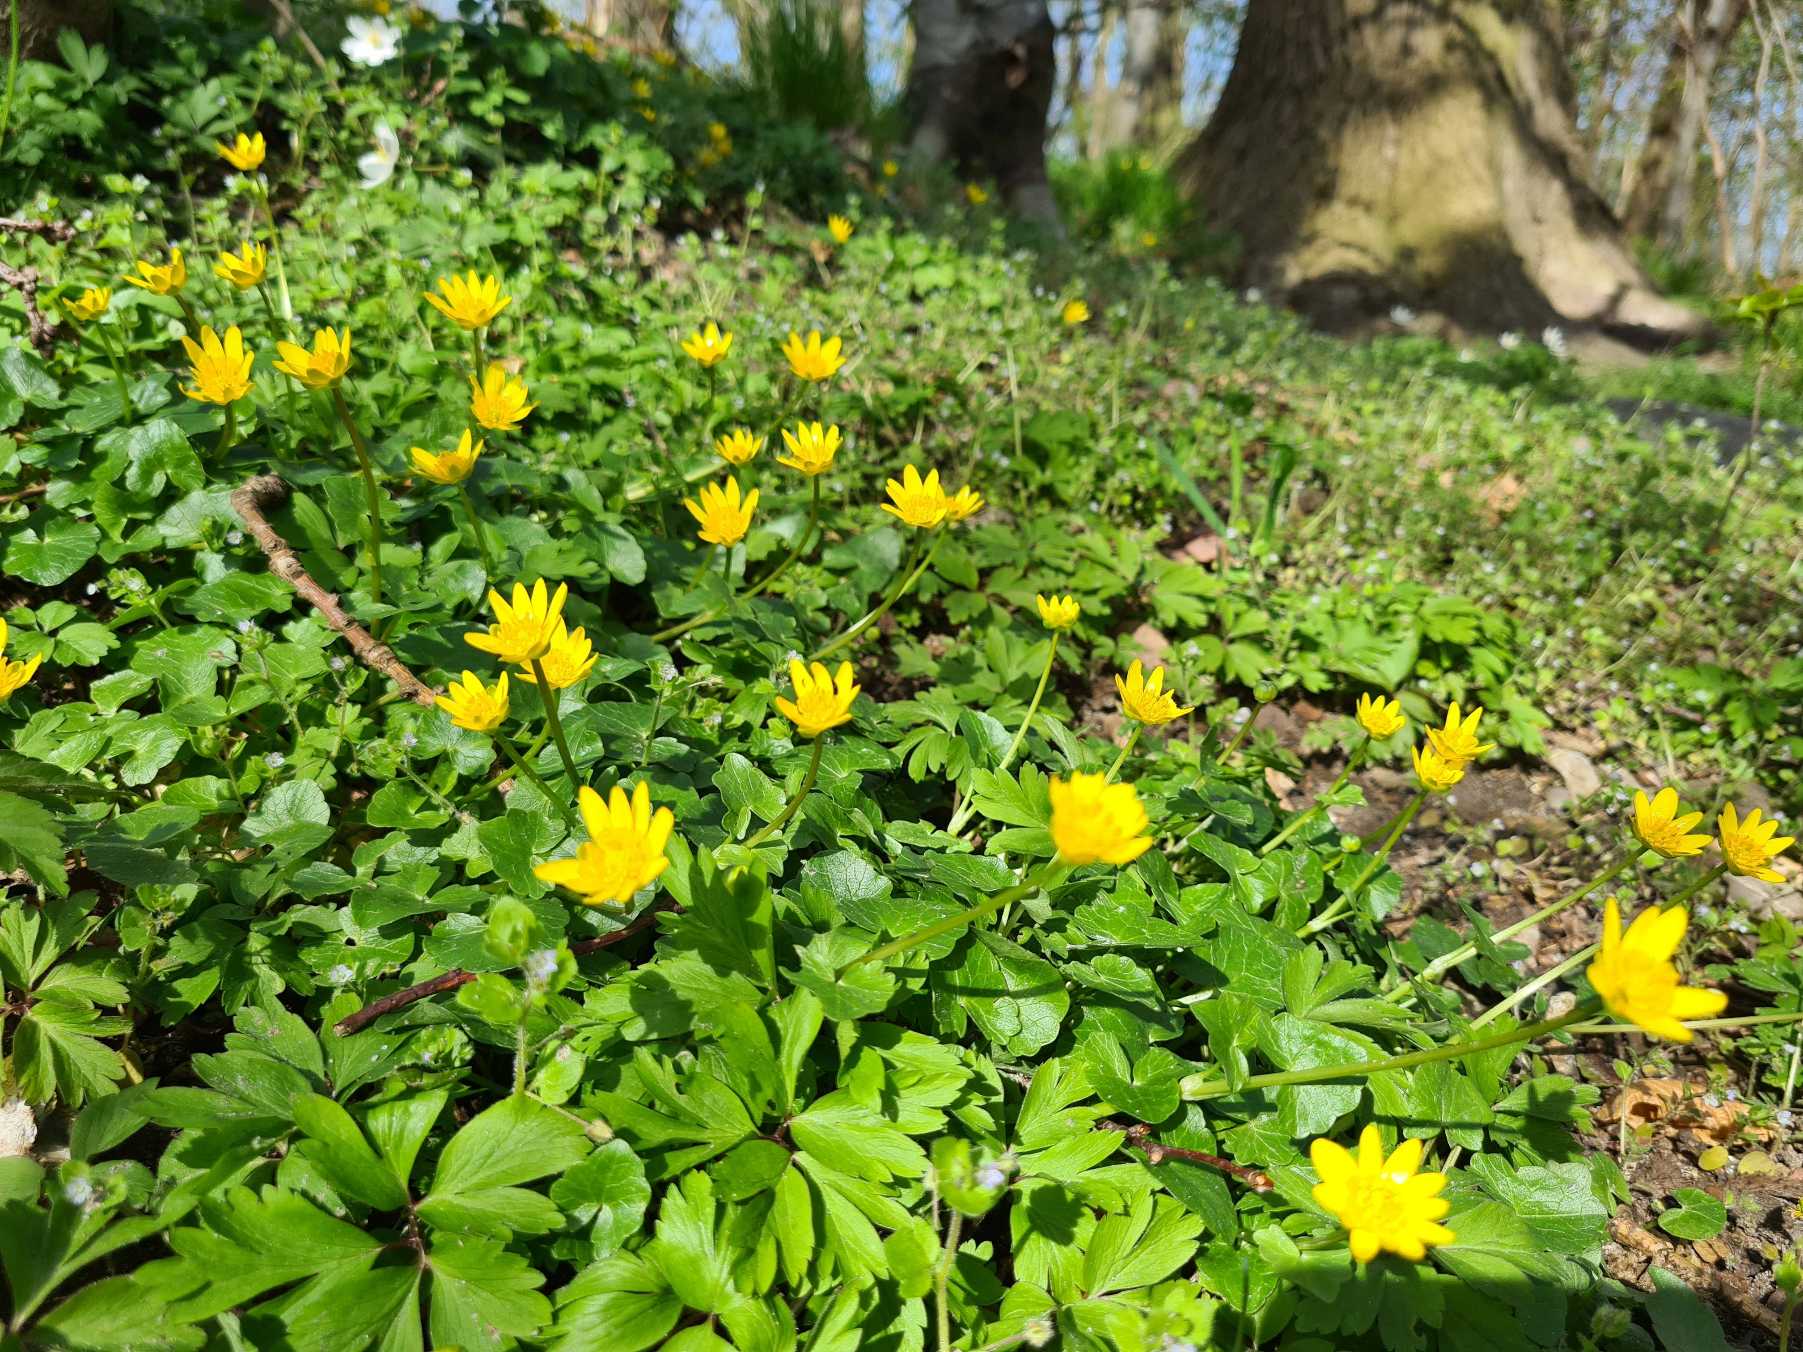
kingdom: Plantae
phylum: Tracheophyta
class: Magnoliopsida
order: Ranunculales
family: Ranunculaceae
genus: Ficaria
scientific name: Ficaria verna
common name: Vorterod
